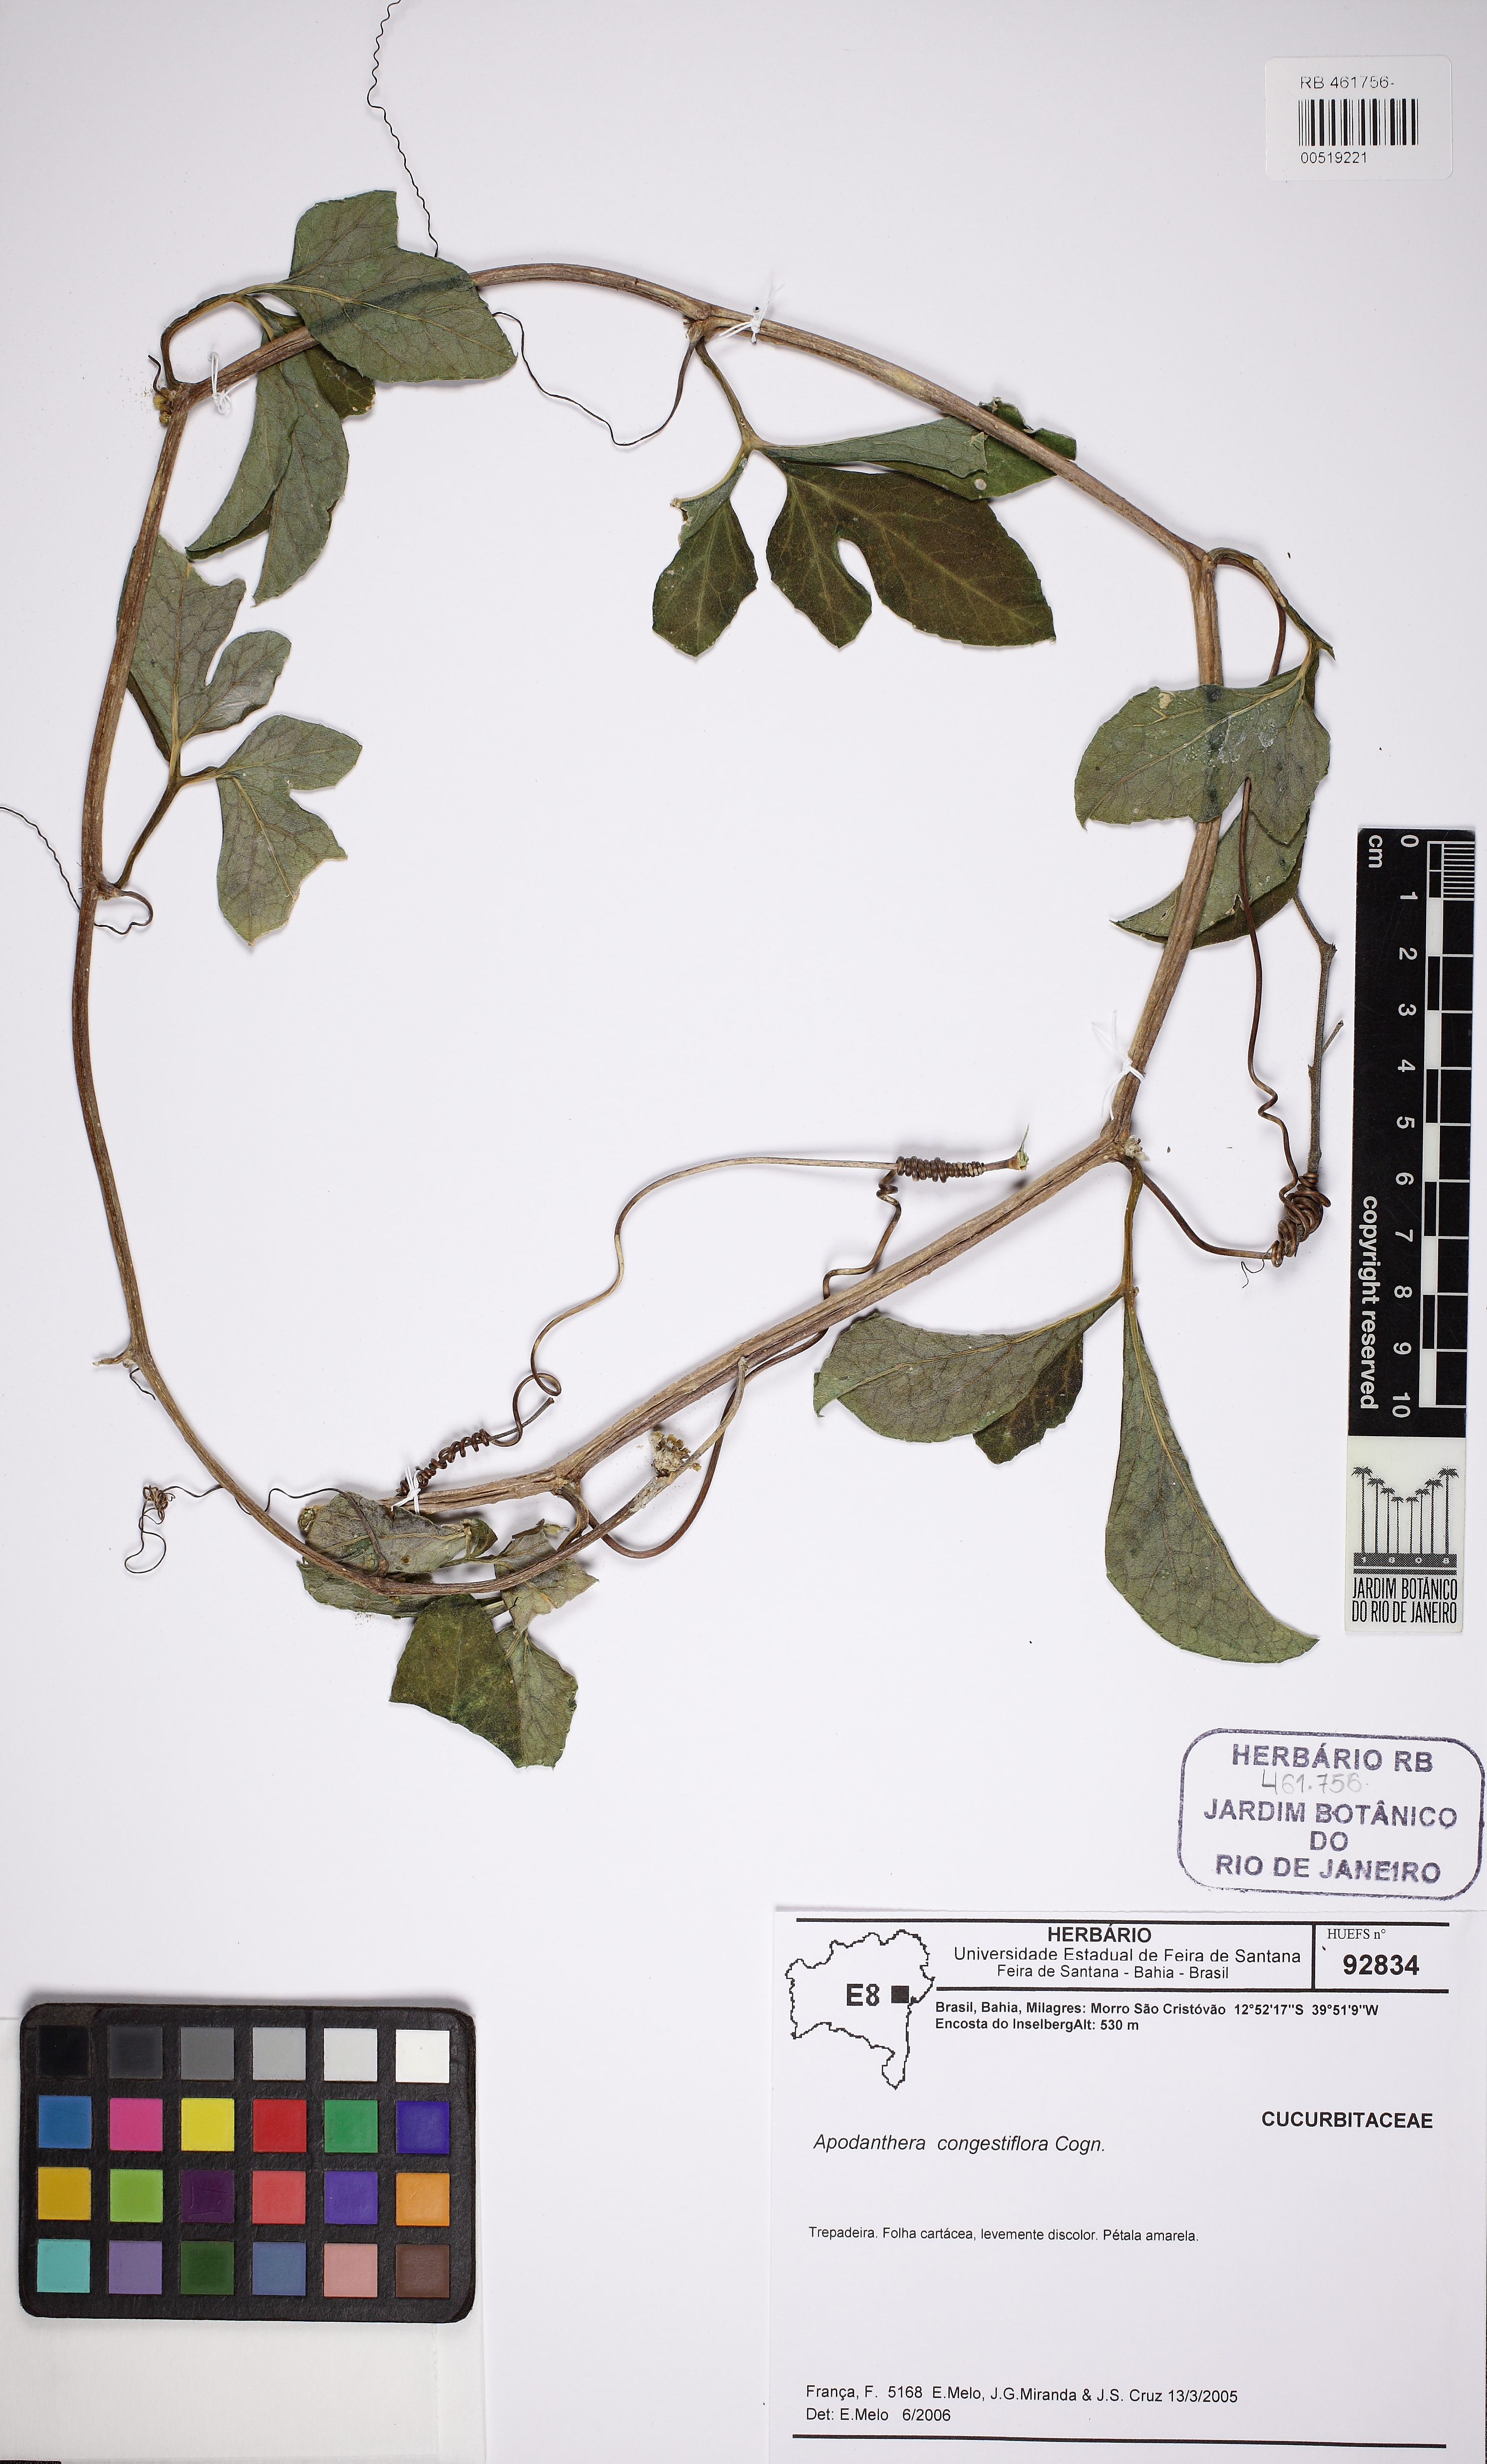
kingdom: Plantae
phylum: Tracheophyta
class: Magnoliopsida
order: Cucurbitales
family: Cucurbitaceae
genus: Apodanthera
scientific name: Apodanthera congestiflora
